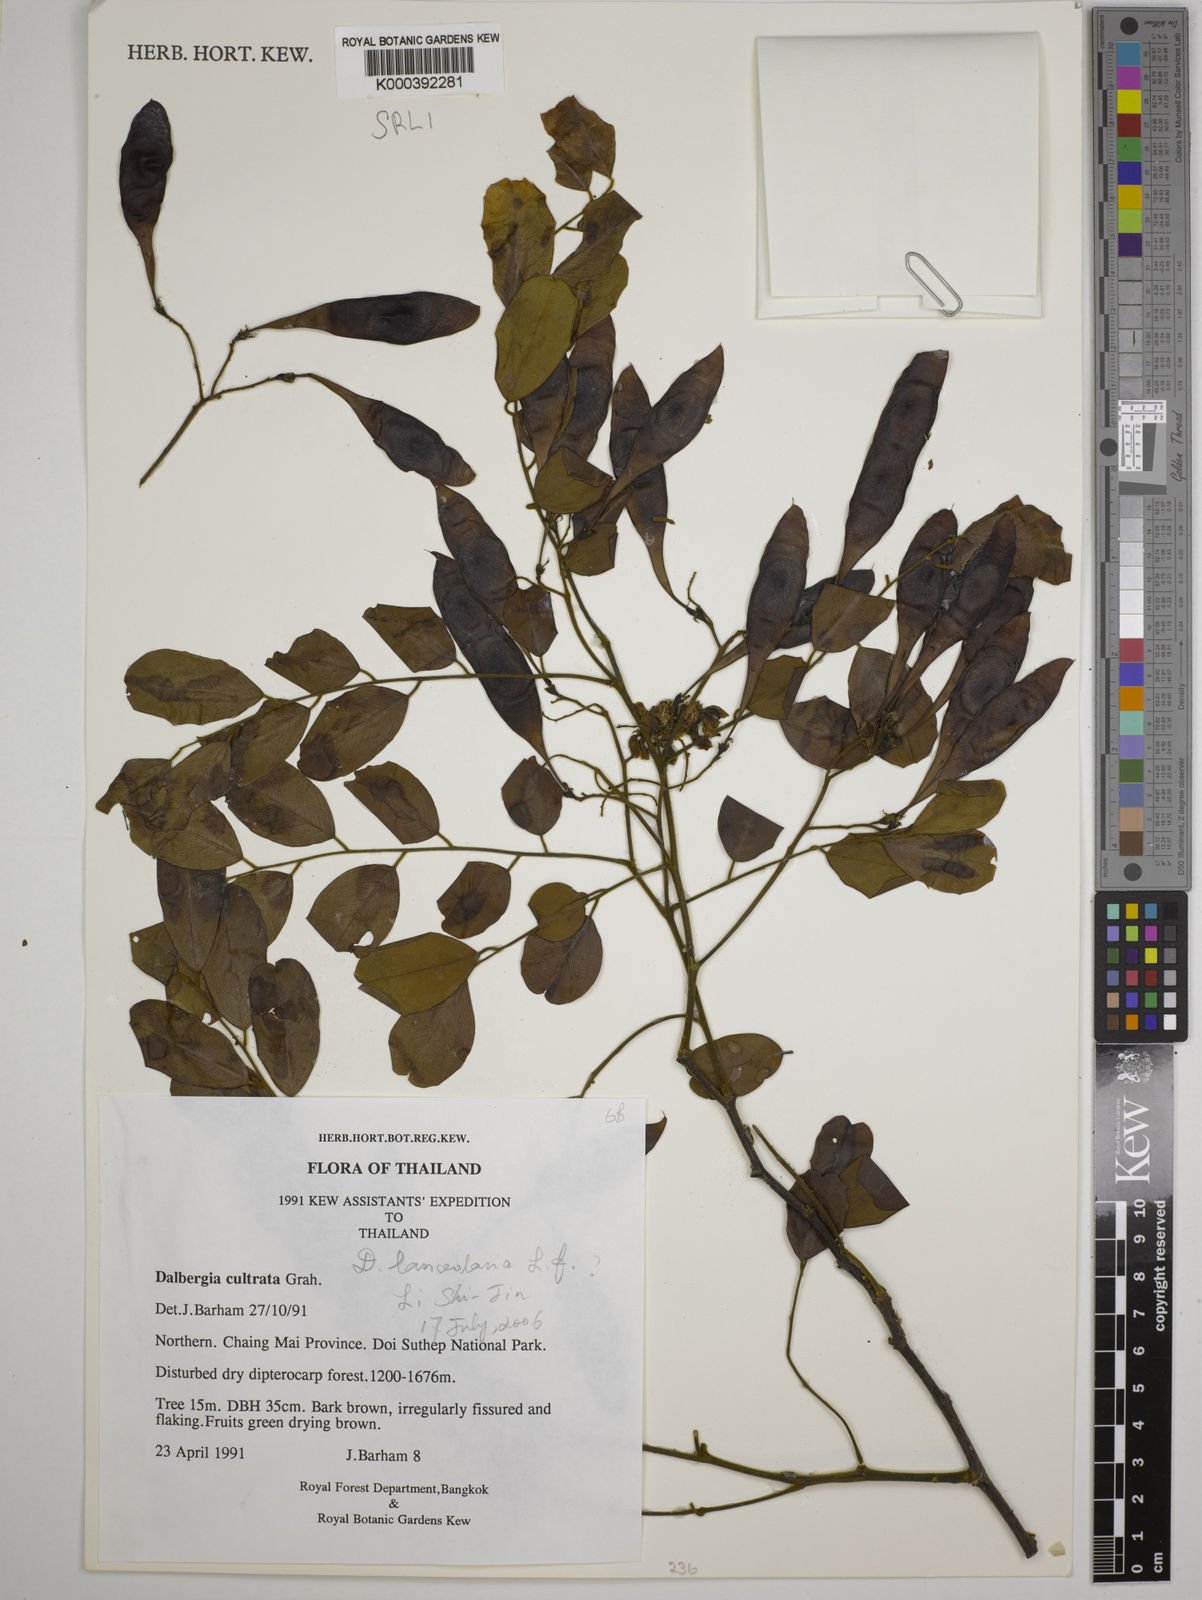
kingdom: Plantae
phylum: Tracheophyta
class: Magnoliopsida
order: Fabales
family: Fabaceae
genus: Dalbergia
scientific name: Dalbergia
